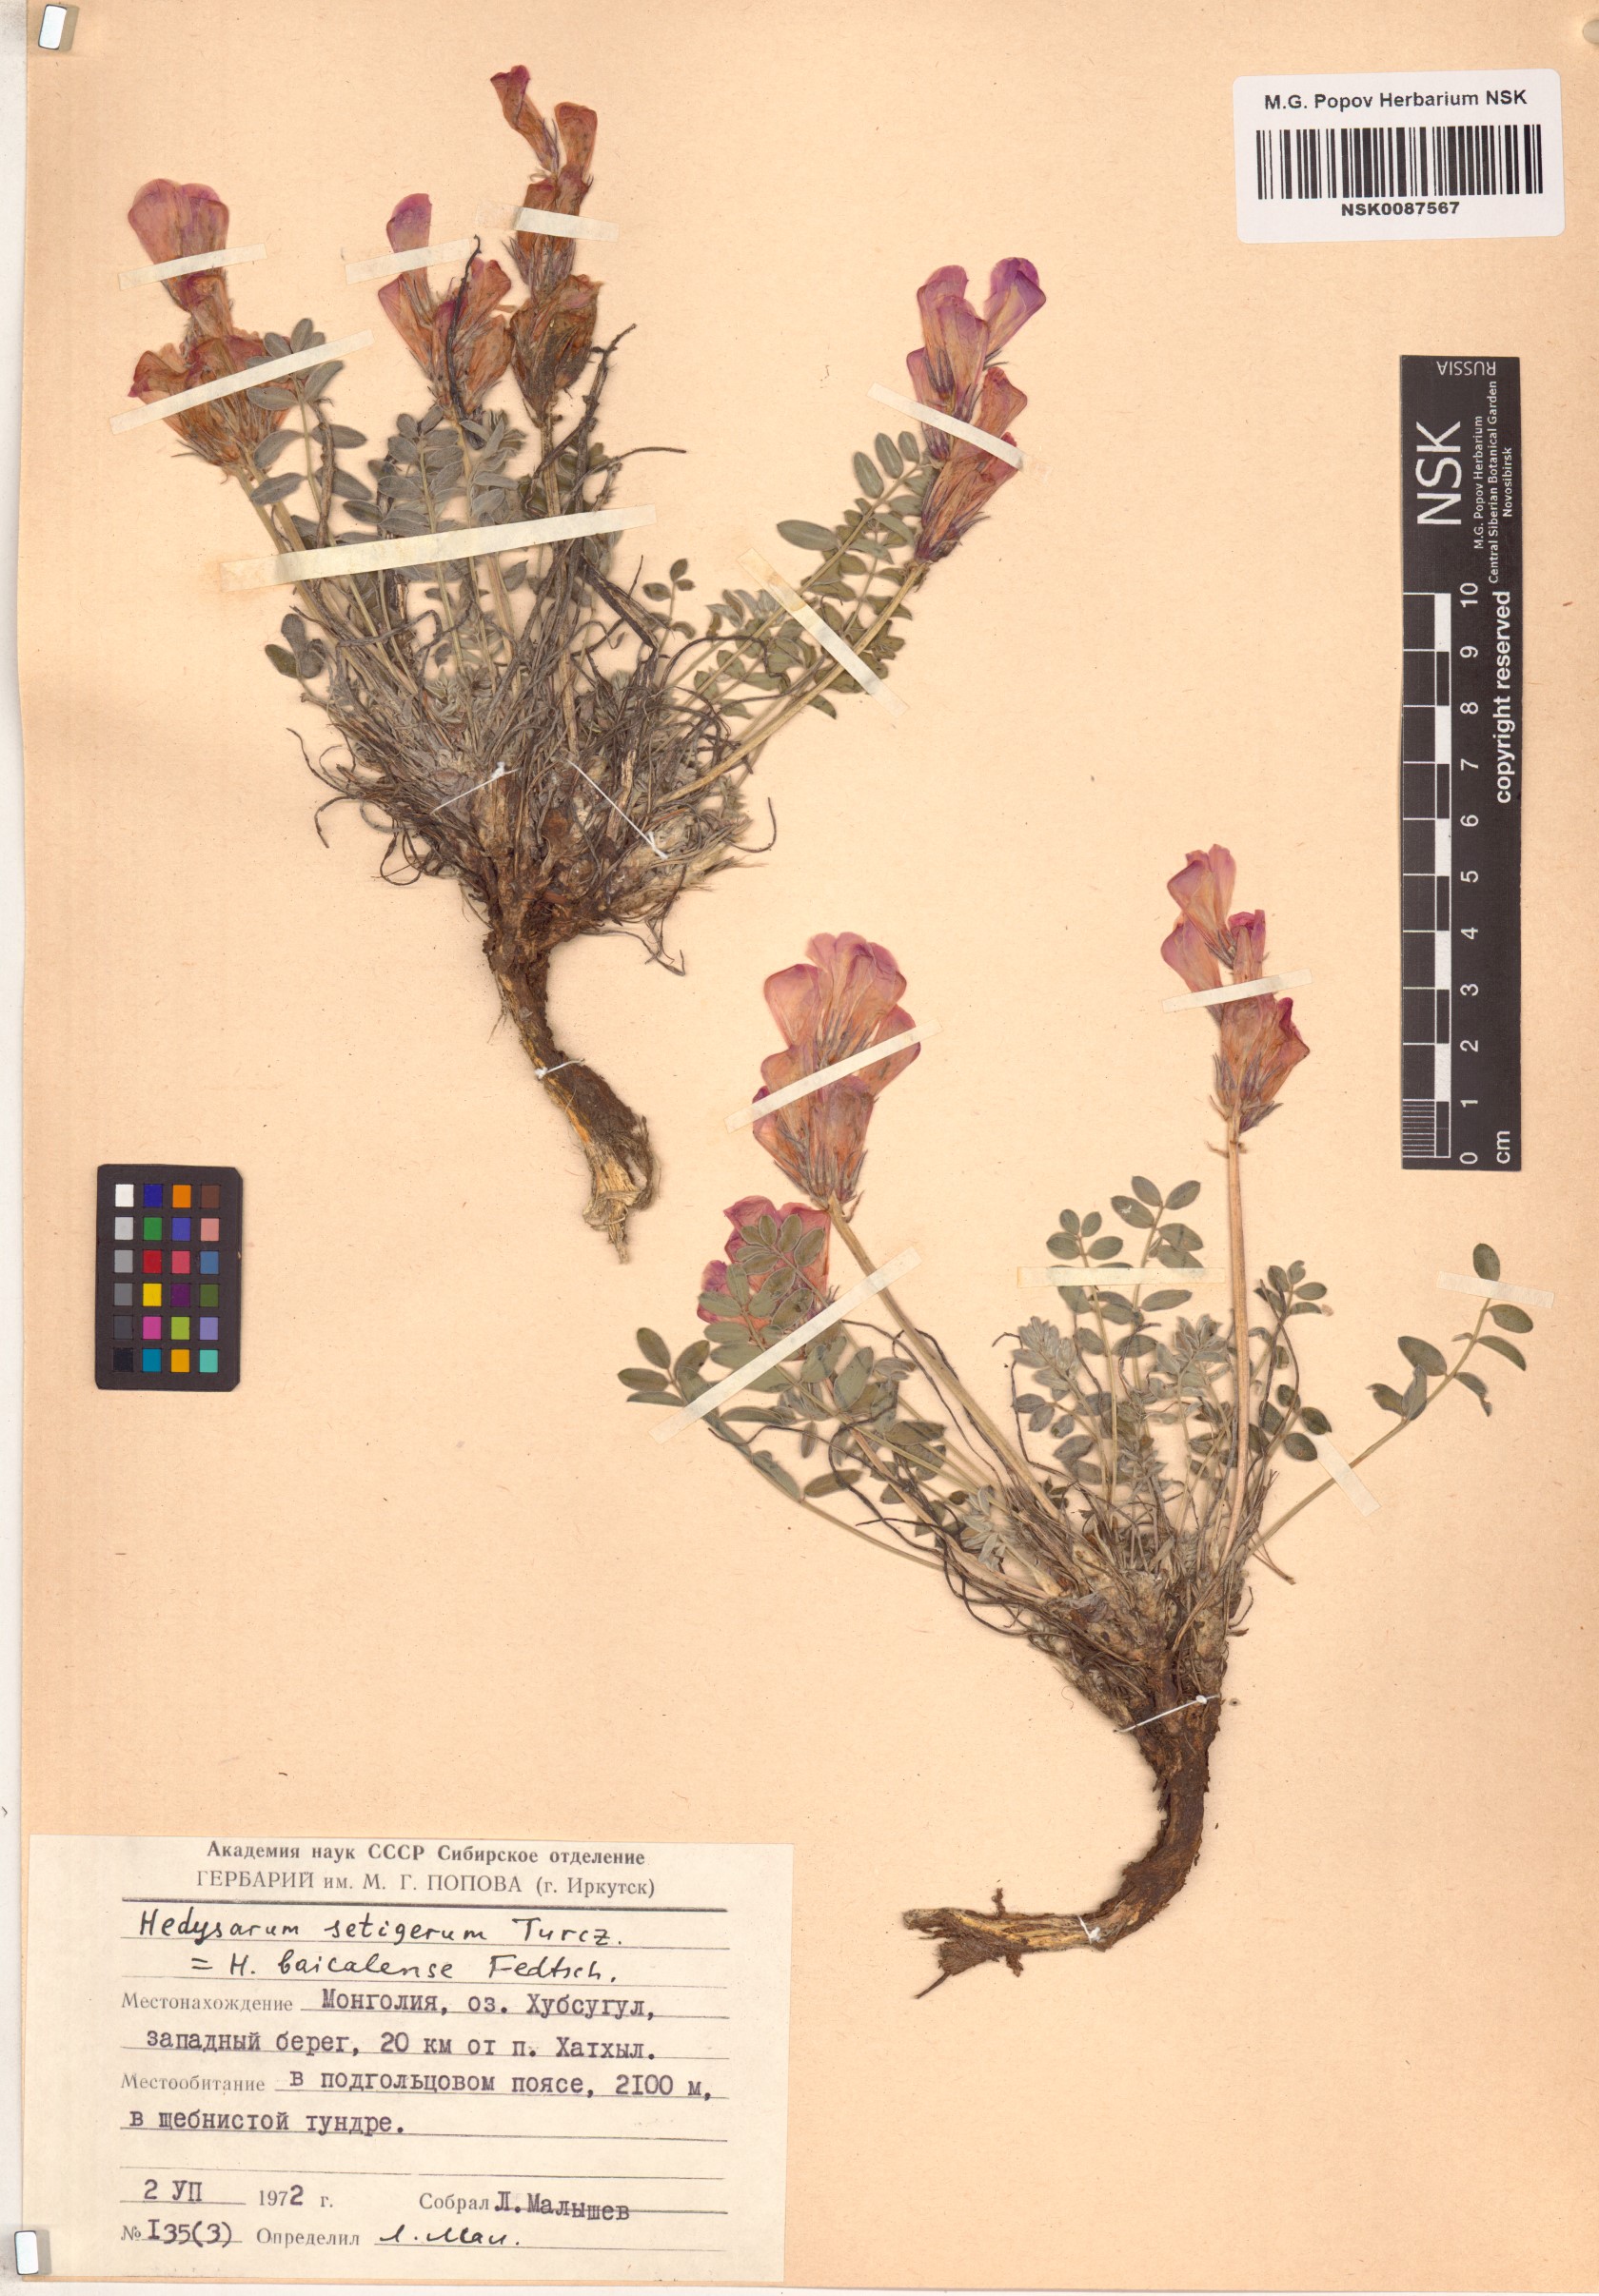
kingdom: Plantae
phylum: Tracheophyta
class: Magnoliopsida
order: Fabales
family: Fabaceae
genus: Hedysarum
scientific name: Hedysarum setigerum
